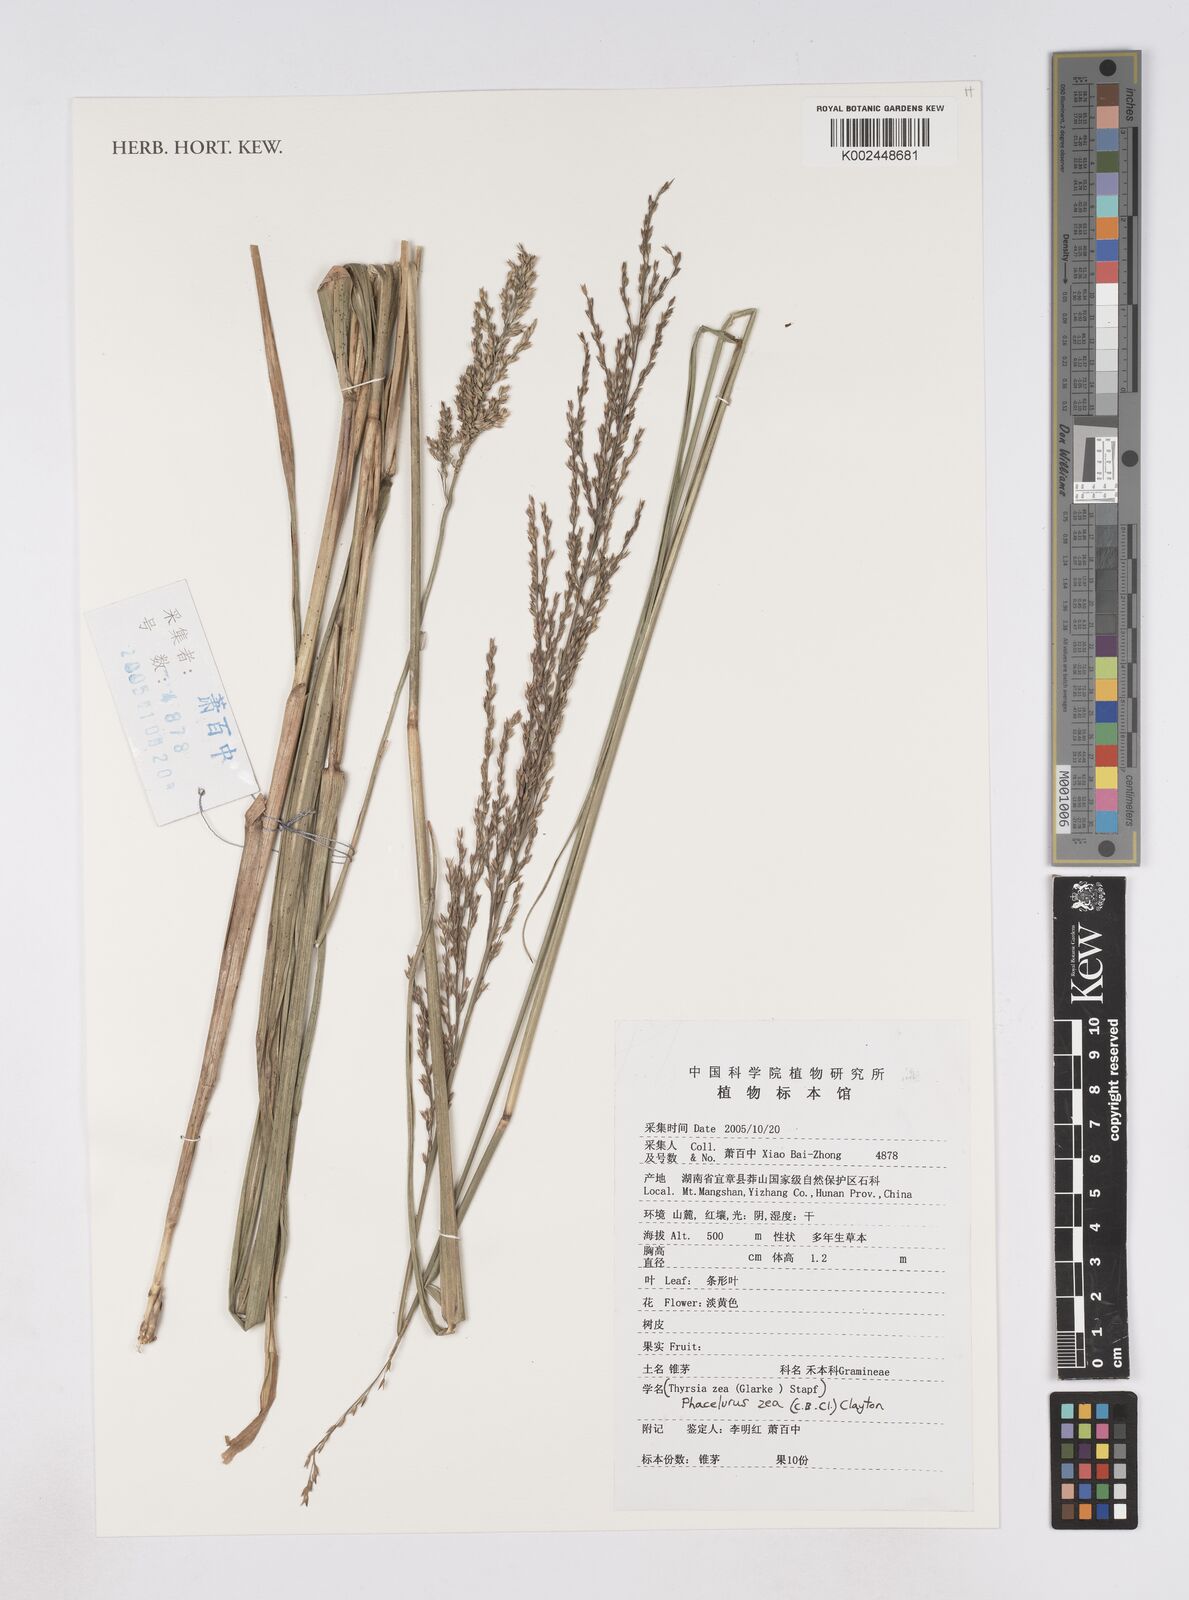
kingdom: Plantae
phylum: Tracheophyta
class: Liliopsida
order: Poales
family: Poaceae
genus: Thyrsia
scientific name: Thyrsia zea
